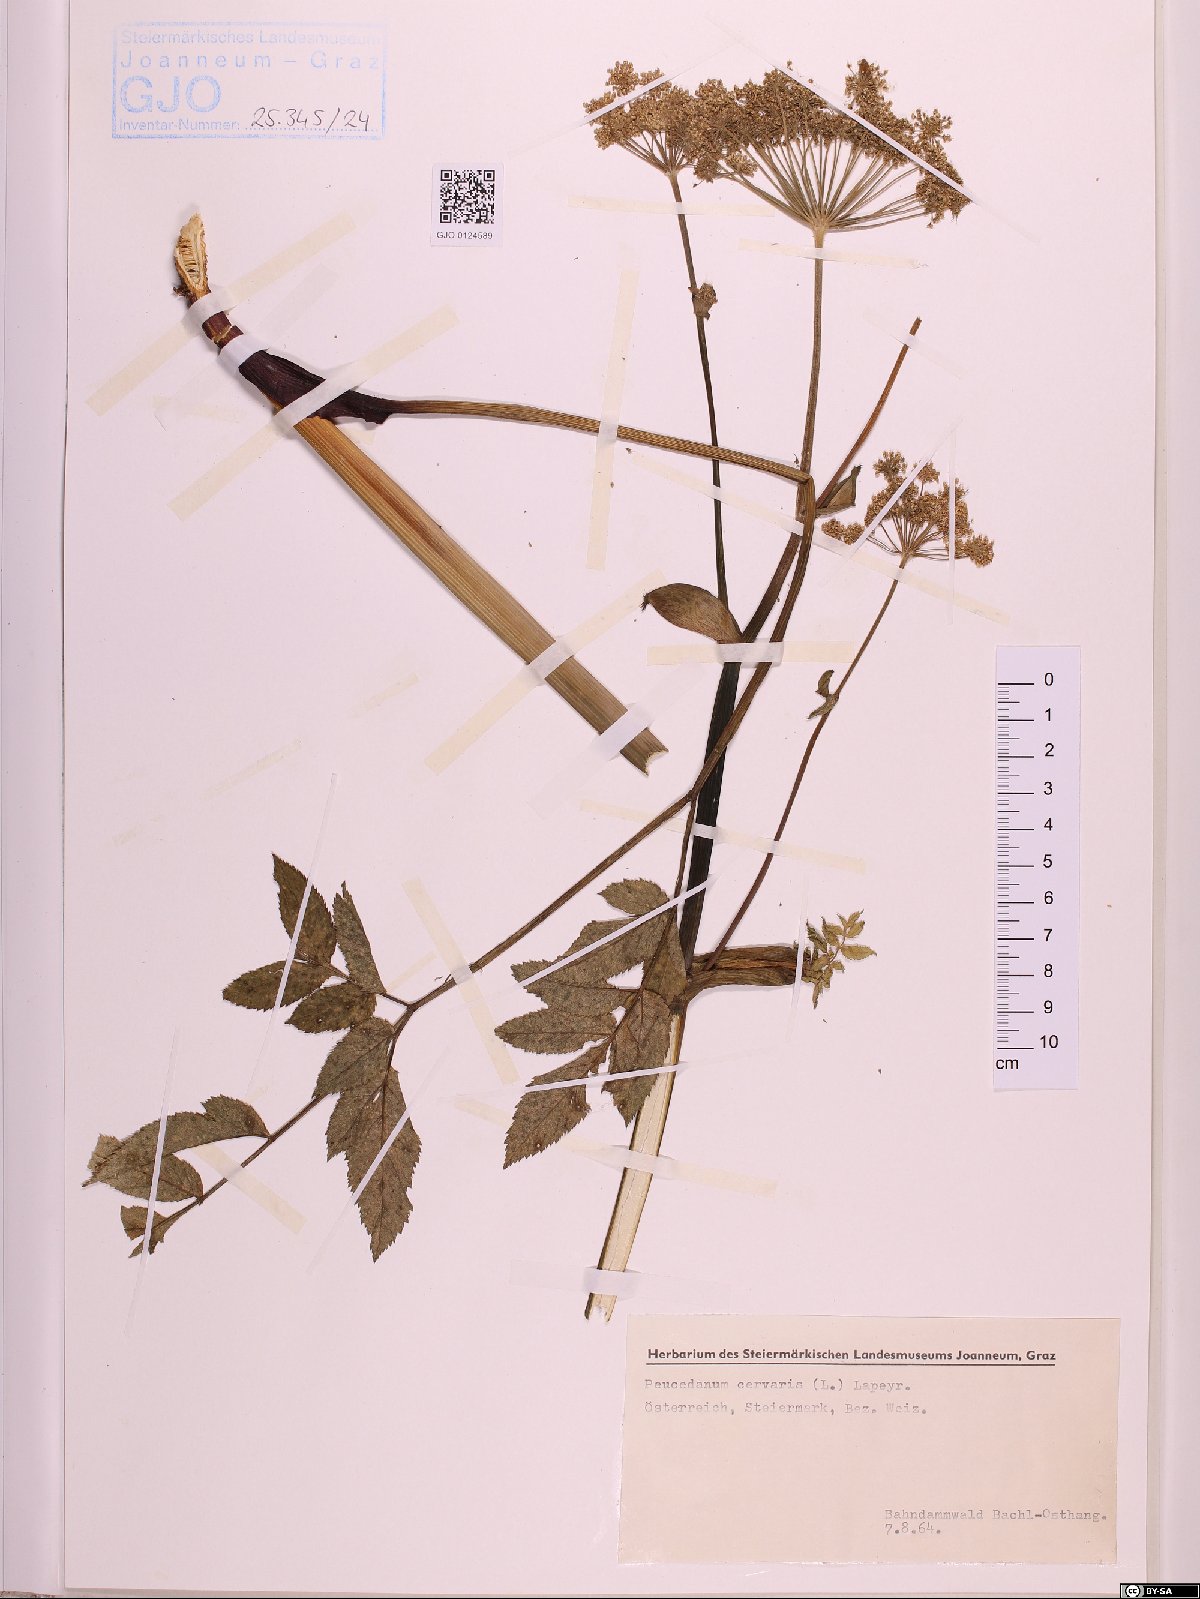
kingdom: Plantae
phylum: Tracheophyta
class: Magnoliopsida
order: Apiales
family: Apiaceae
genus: Cervaria
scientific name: Cervaria rivini
